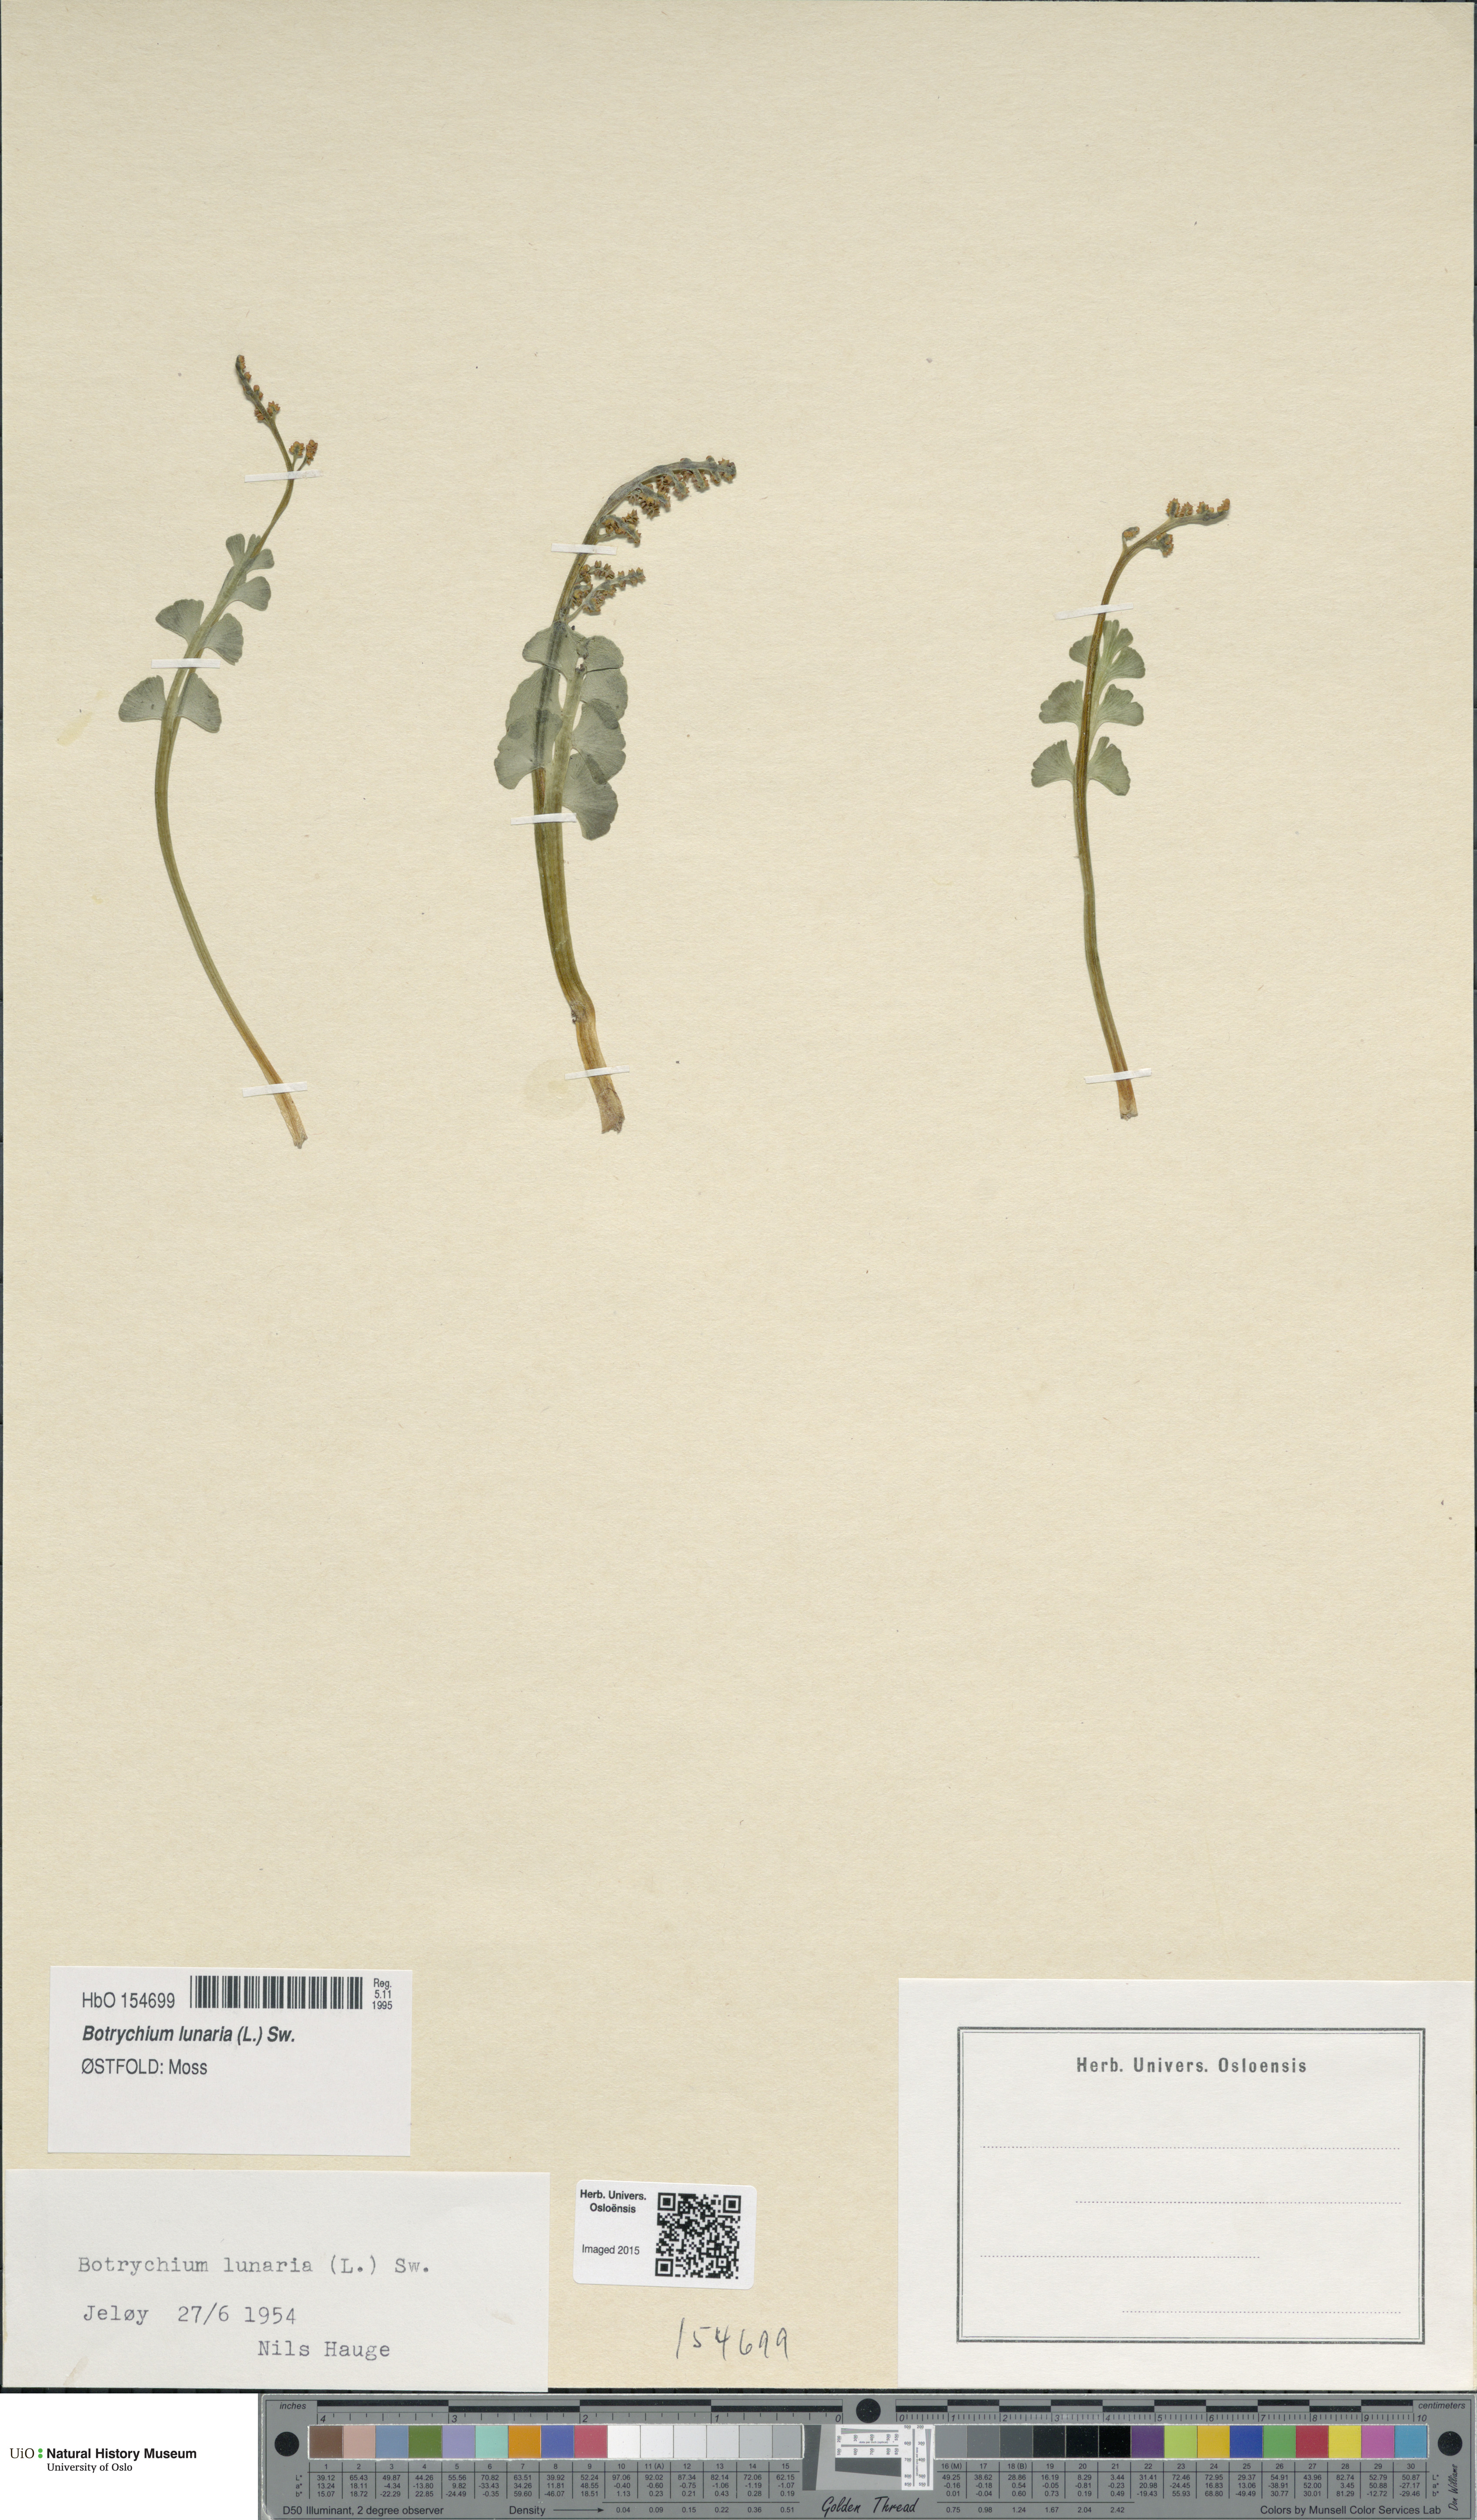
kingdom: Plantae
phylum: Tracheophyta
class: Polypodiopsida
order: Ophioglossales
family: Ophioglossaceae
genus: Botrychium
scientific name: Botrychium lunaria
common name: Moonwort
